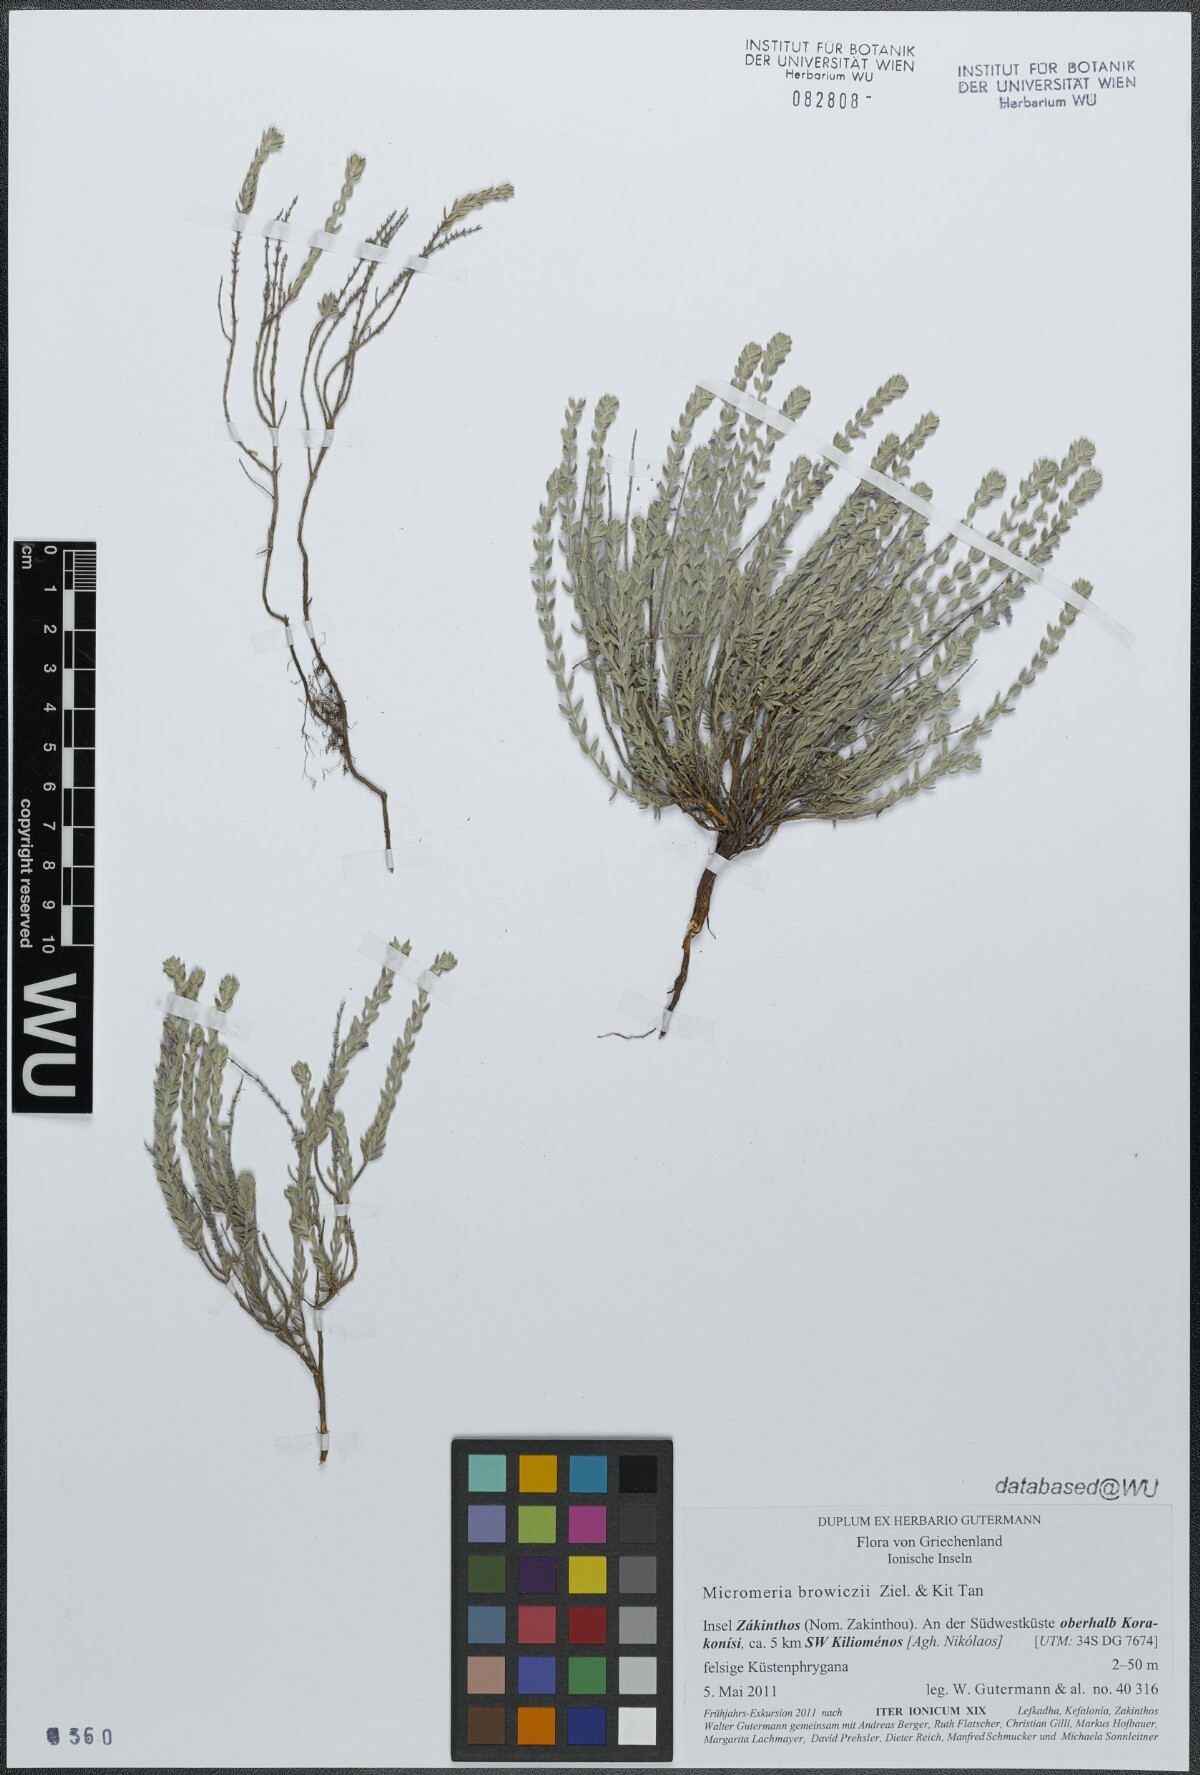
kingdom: Plantae
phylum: Tracheophyta
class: Magnoliopsida
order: Lamiales
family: Lamiaceae
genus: Micromeria
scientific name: Micromeria browiczii
